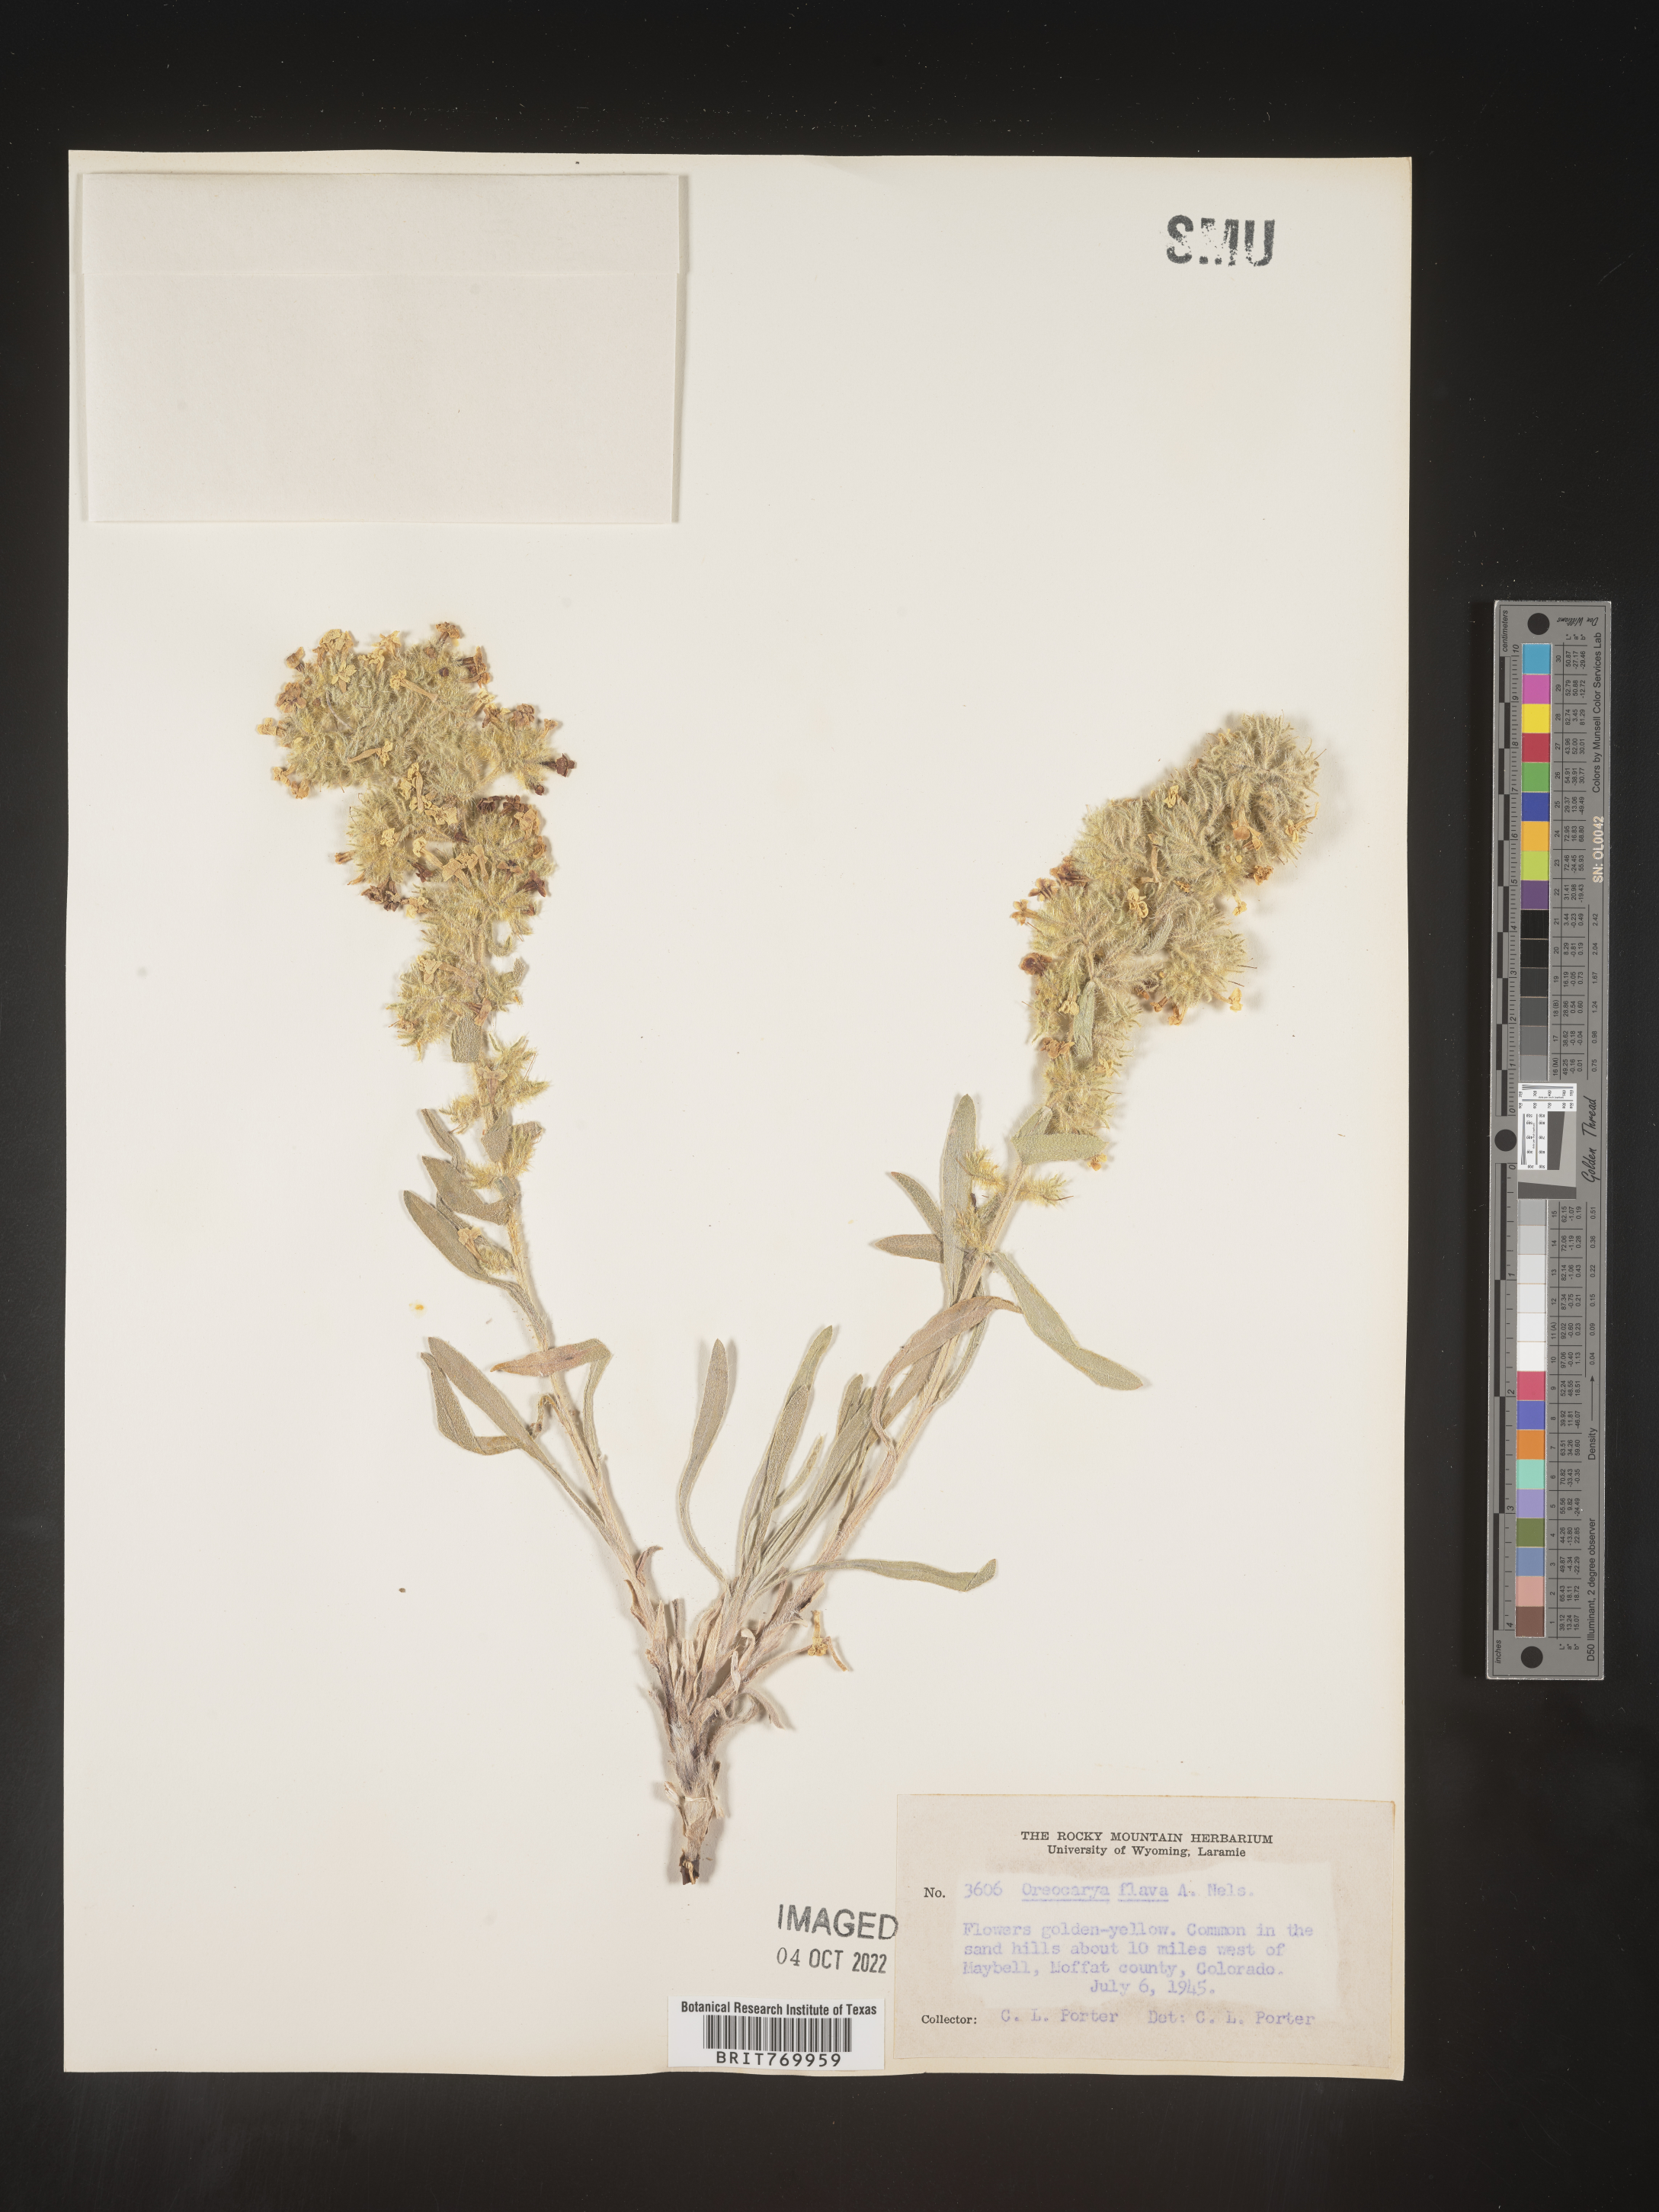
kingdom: Plantae
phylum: Tracheophyta
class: Magnoliopsida
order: Boraginales
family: Boraginaceae
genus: Oreocarya
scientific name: Oreocarya
